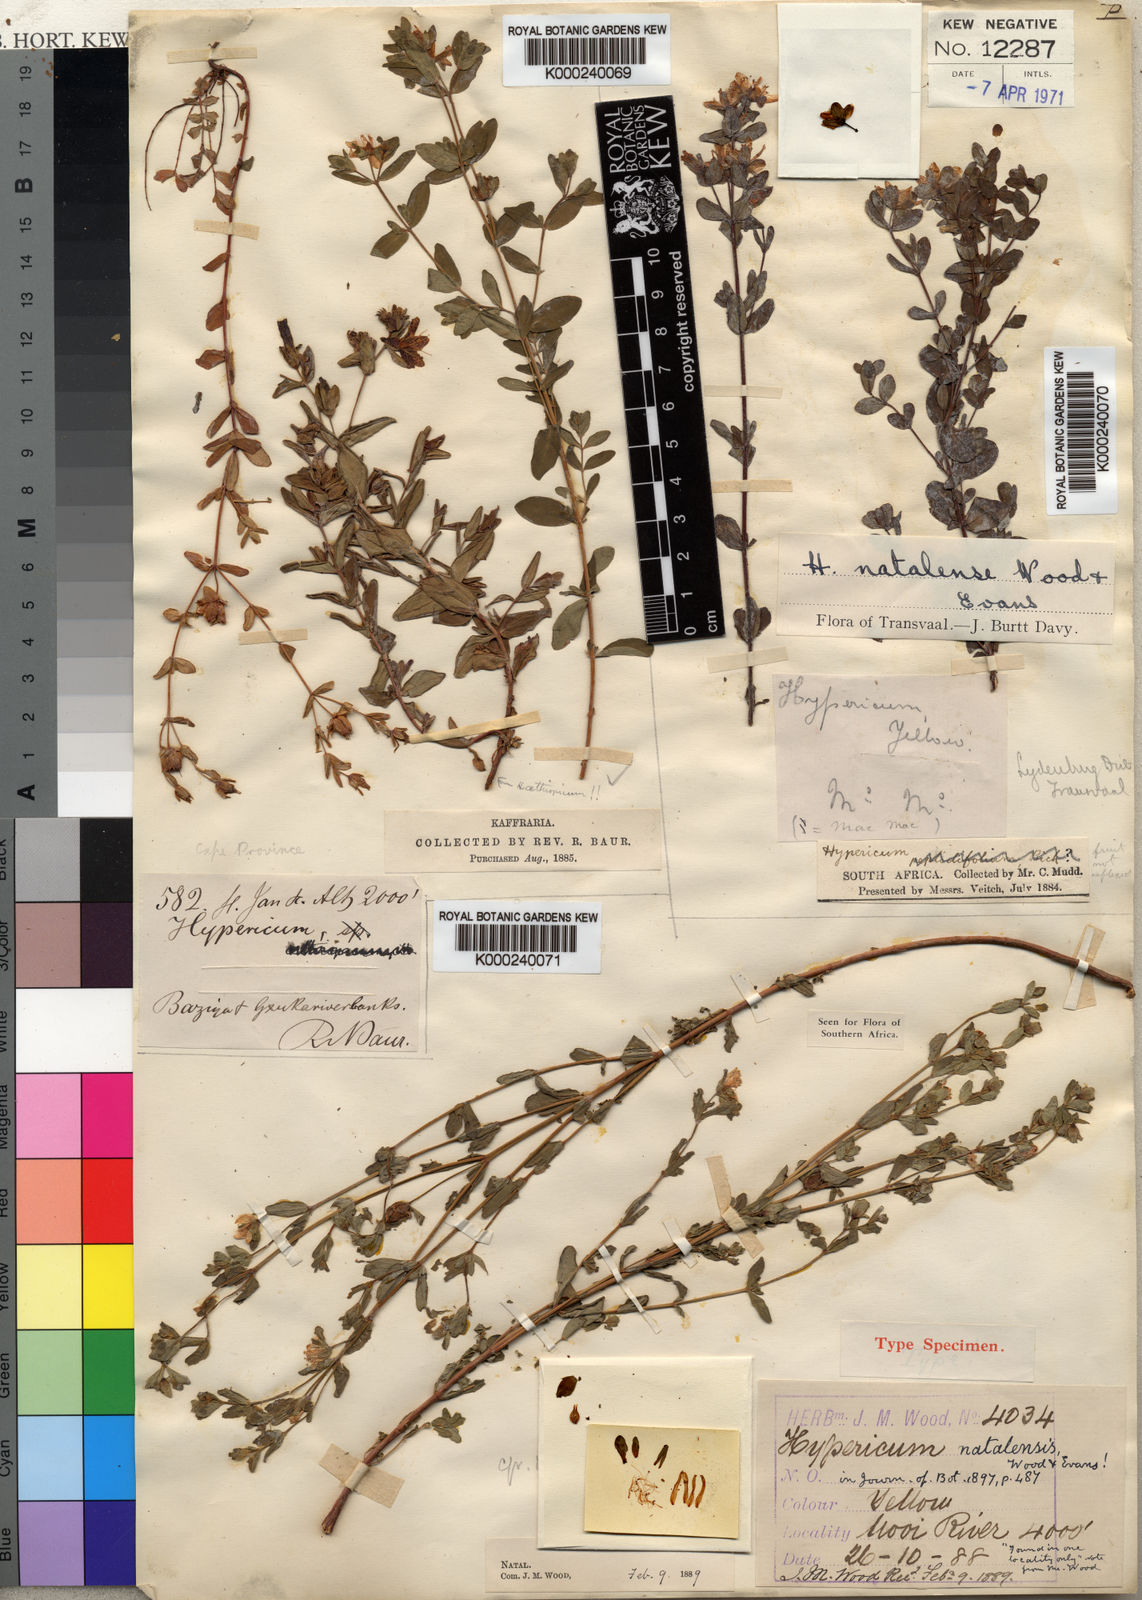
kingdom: Plantae
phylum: Tracheophyta
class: Magnoliopsida
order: Malpighiales
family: Hypericaceae
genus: Hypericum
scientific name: Hypericum
